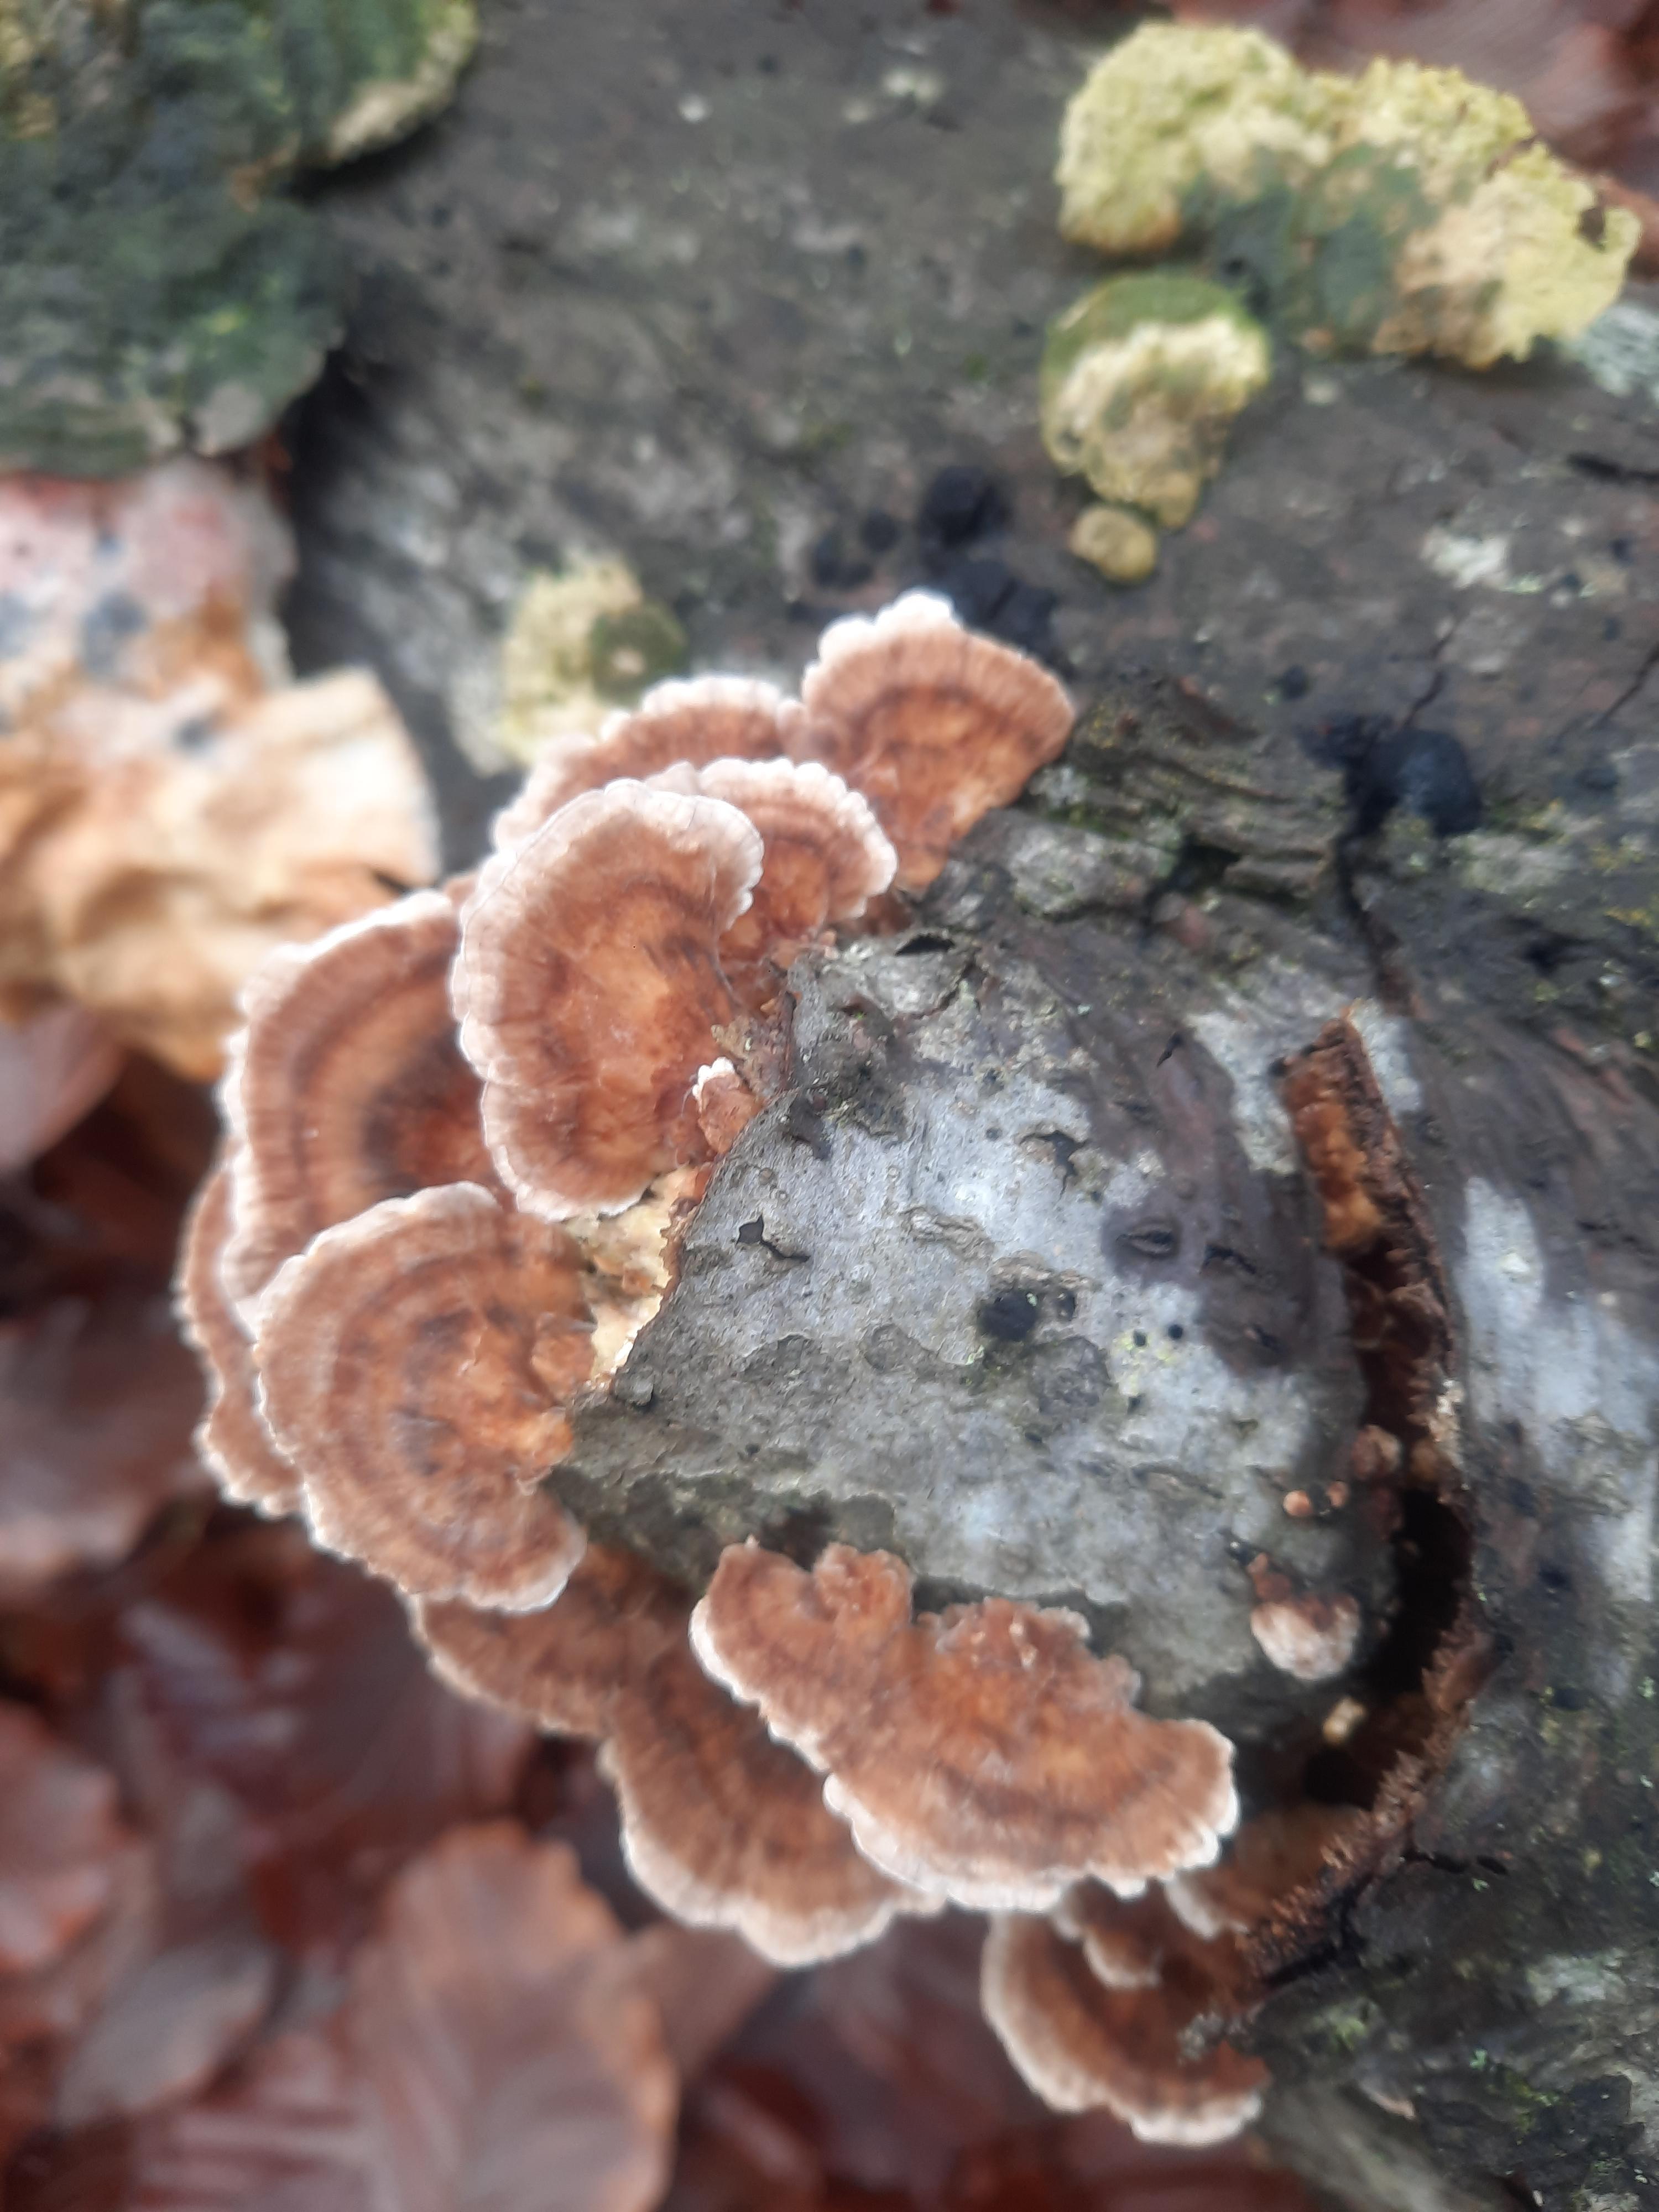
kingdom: Fungi
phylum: Basidiomycota
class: Agaricomycetes
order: Polyporales
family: Polyporaceae
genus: Trametes
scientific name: Trametes versicolor
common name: broget læderporesvamp
